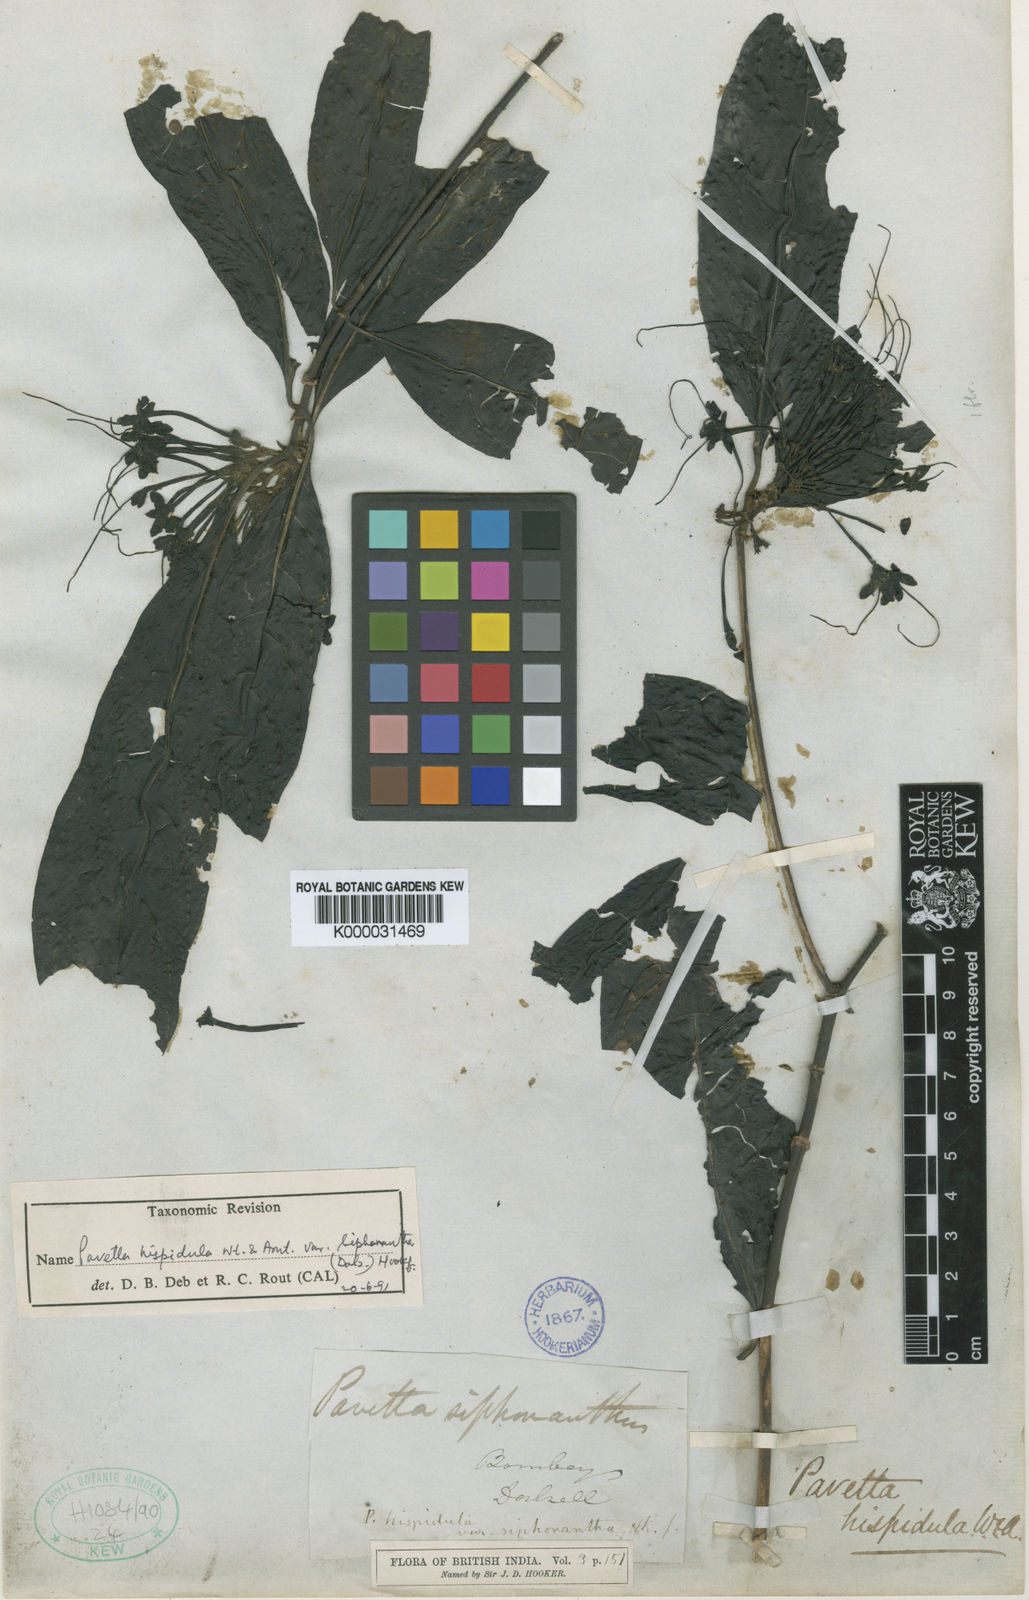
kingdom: Plantae
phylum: Tracheophyta
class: Magnoliopsida
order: Gentianales
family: Rubiaceae
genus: Pavetta
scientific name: Pavetta siphonantha
